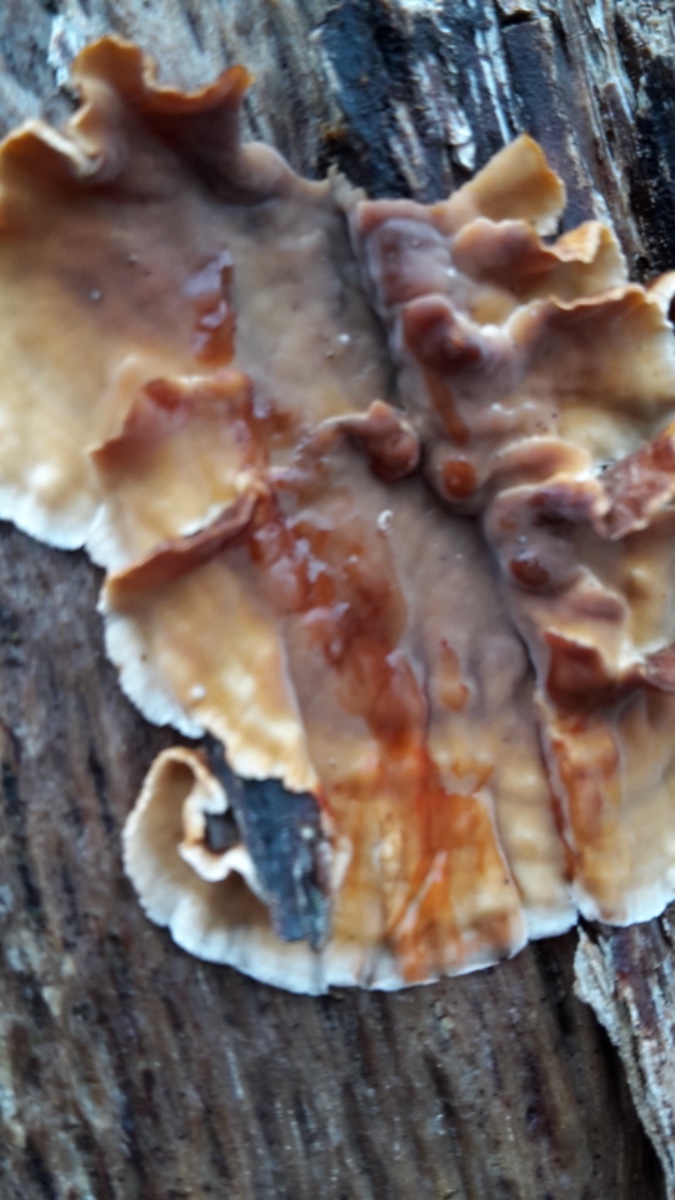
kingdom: Fungi
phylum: Basidiomycota
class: Agaricomycetes
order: Russulales
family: Stereaceae
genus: Stereum
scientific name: Stereum gausapatum
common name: tynd lædersvamp
